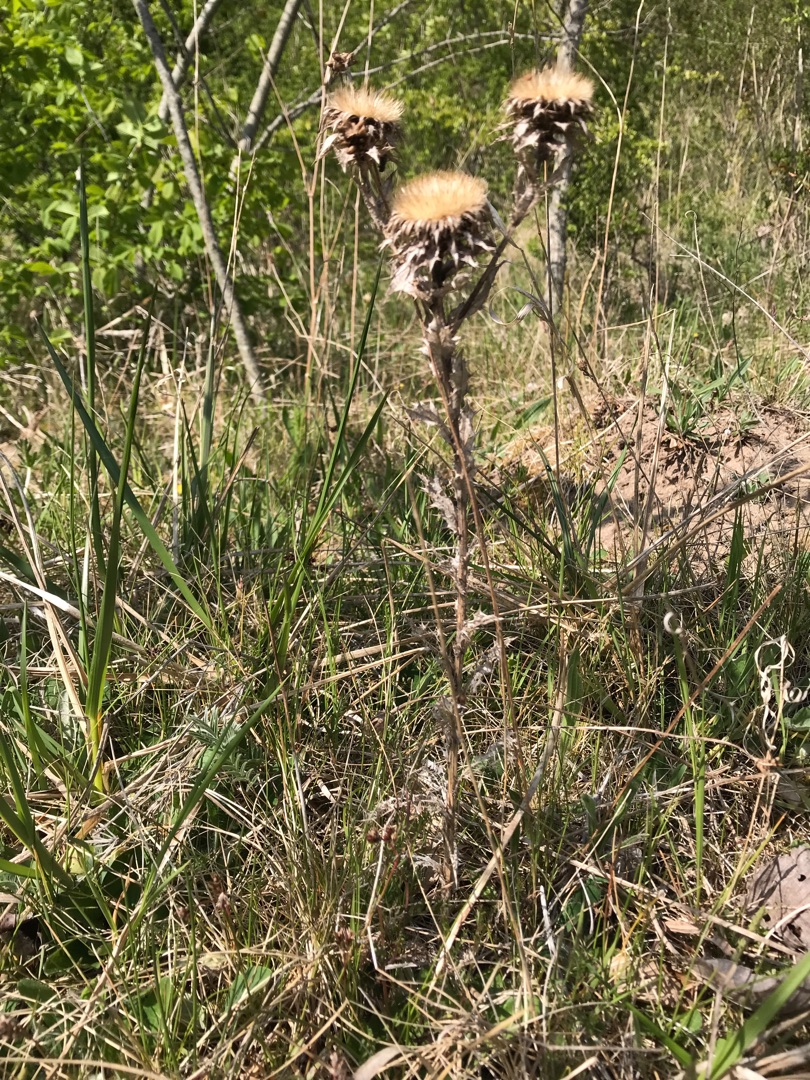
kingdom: Plantae
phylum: Tracheophyta
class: Magnoliopsida
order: Asterales
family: Asteraceae
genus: Carlina
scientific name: Carlina vulgaris
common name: Bakketidsel
